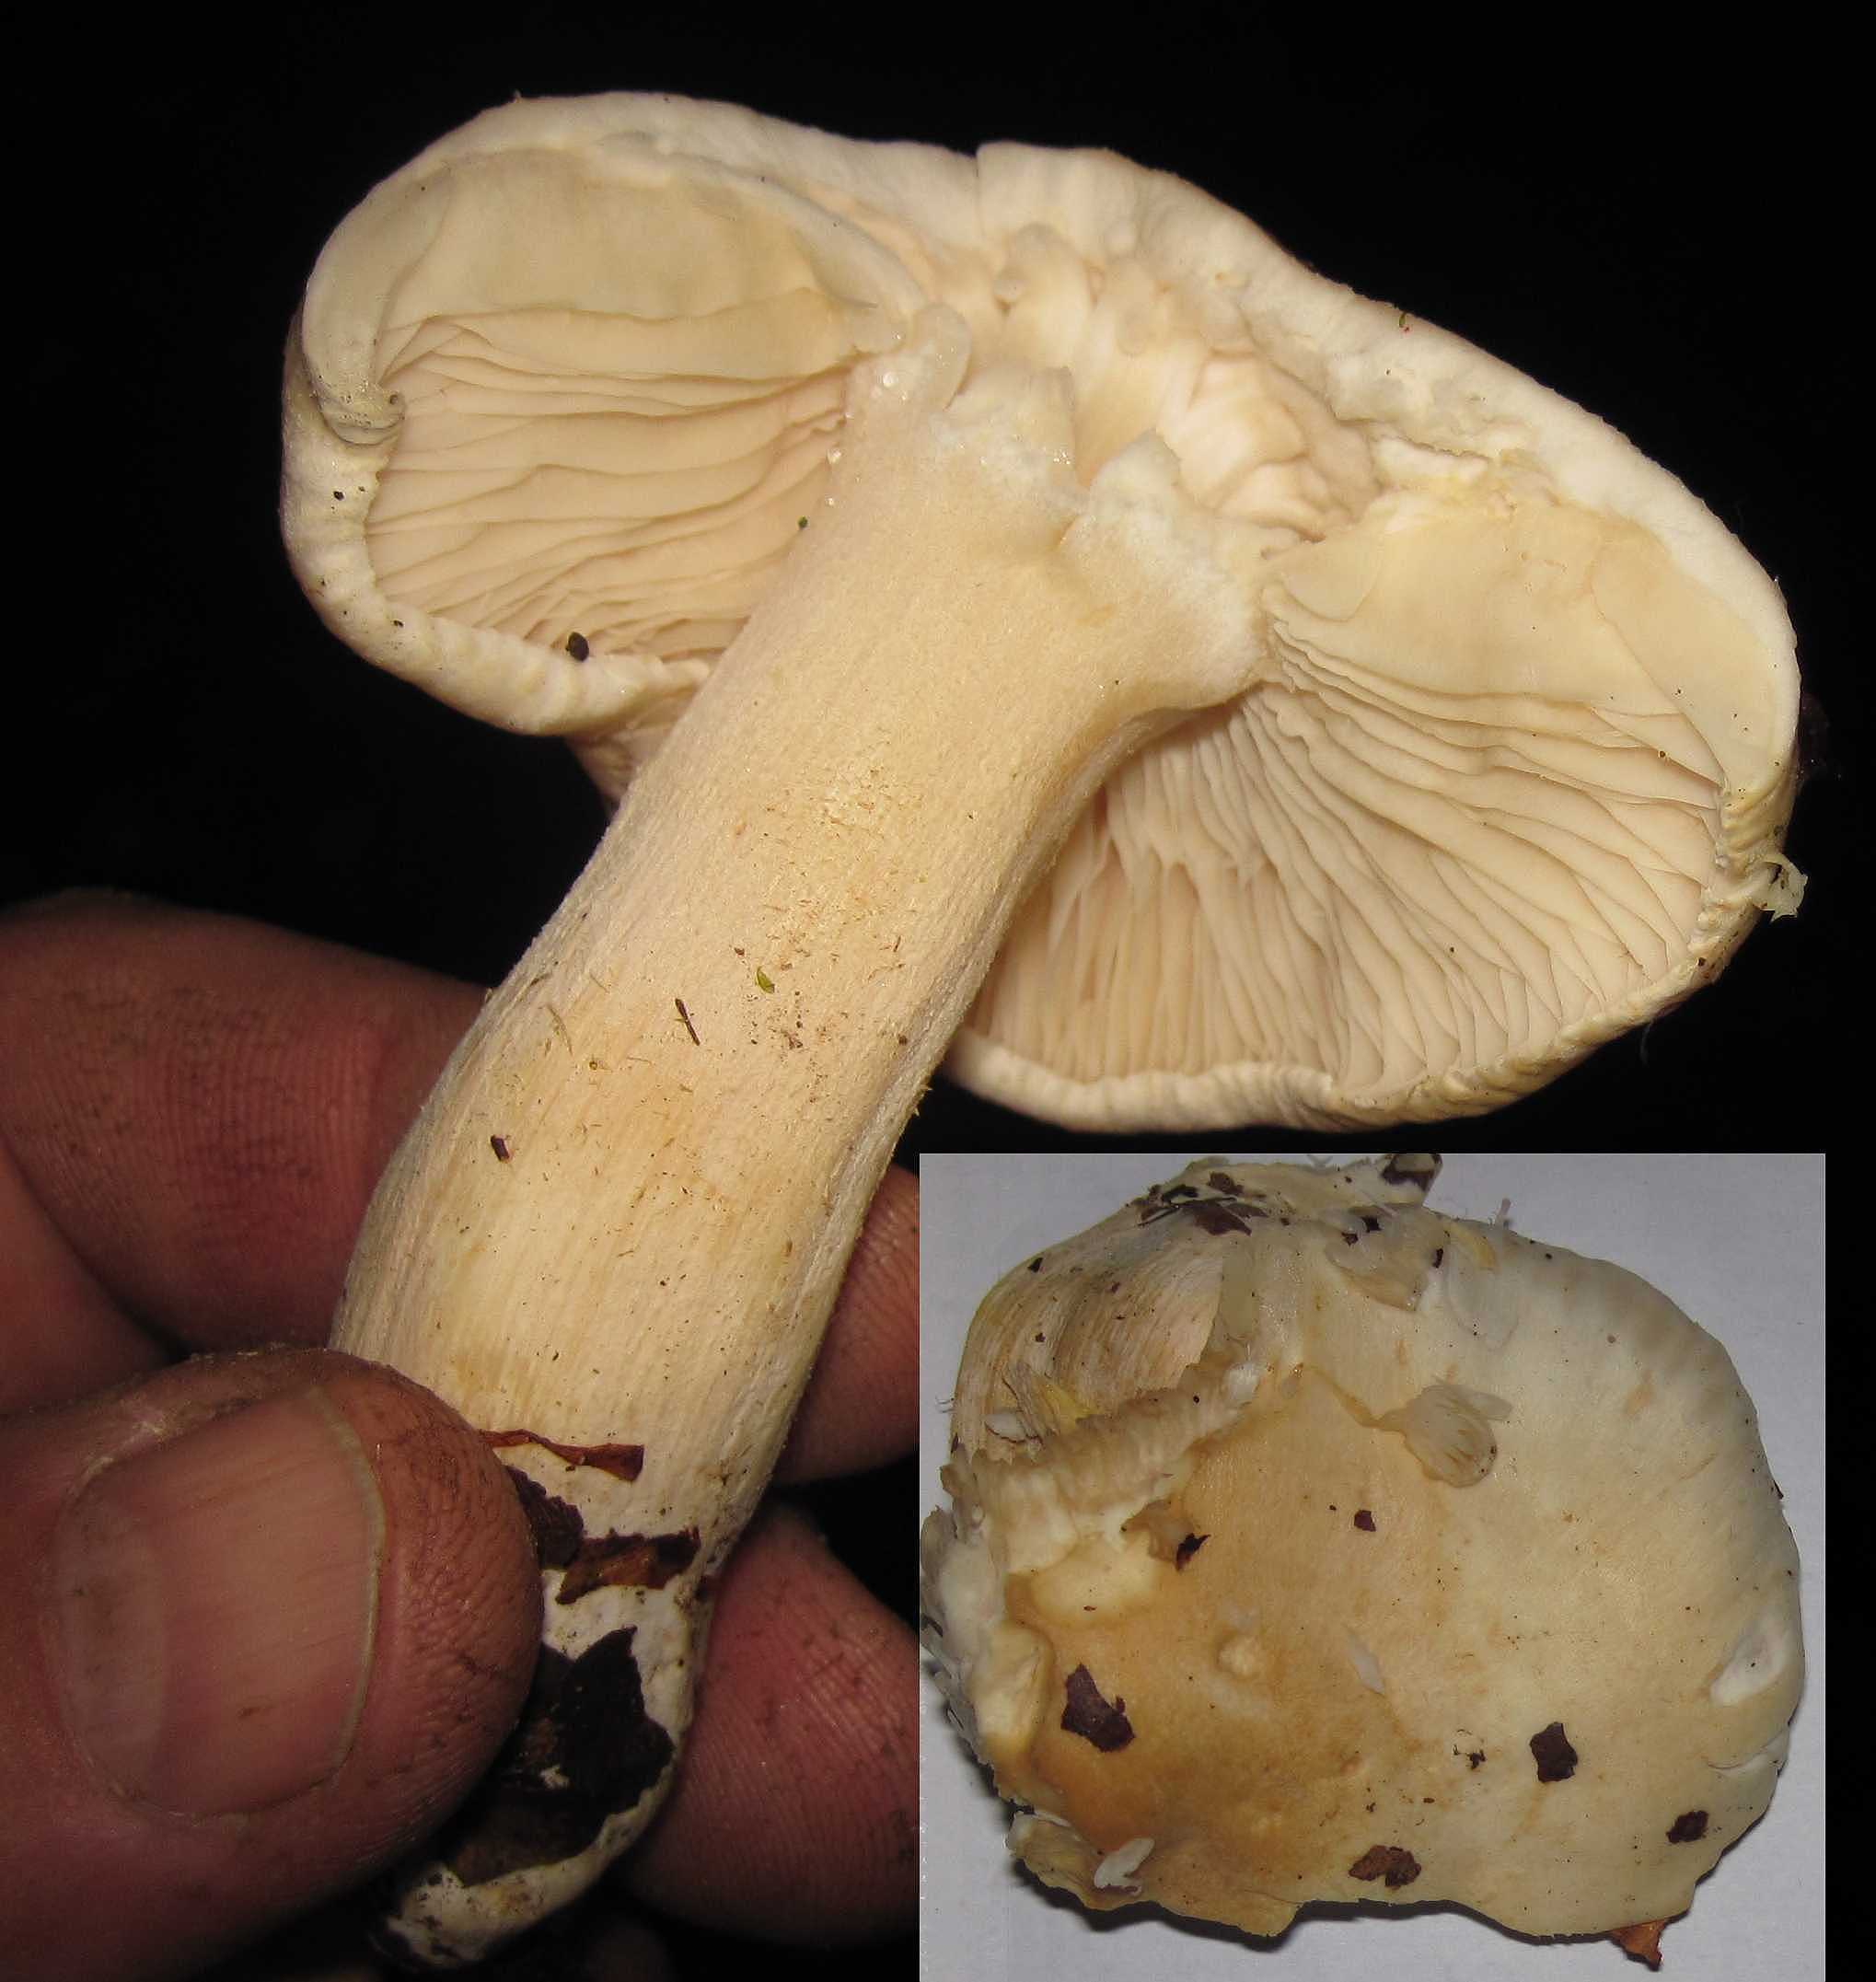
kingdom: Fungi
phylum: Basidiomycota
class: Agaricomycetes
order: Agaricales
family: Entolomataceae
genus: Entoloma
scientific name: Entoloma sinuatum
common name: giftig rødblad
